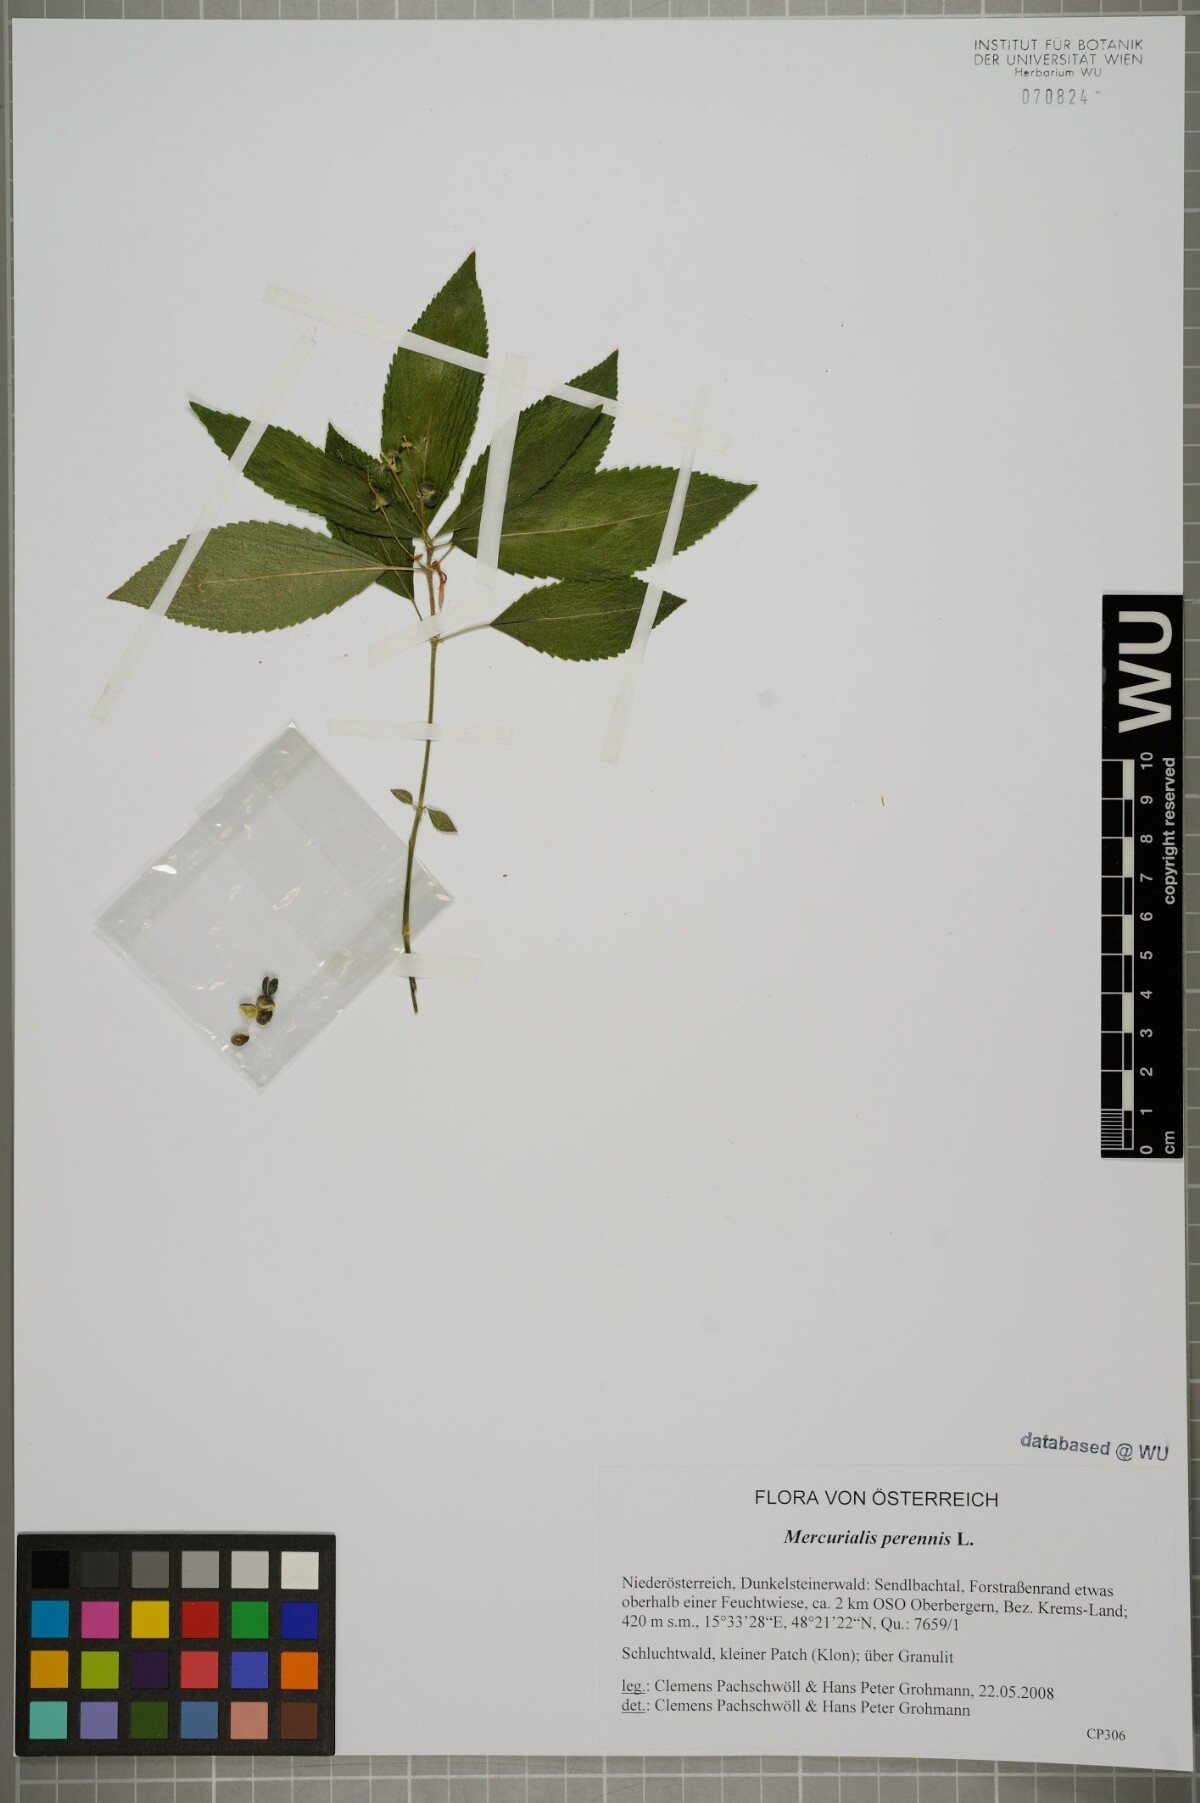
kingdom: Plantae
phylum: Tracheophyta
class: Magnoliopsida
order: Malpighiales
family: Euphorbiaceae
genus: Mercurialis
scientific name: Mercurialis perennis
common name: Dog mercury
